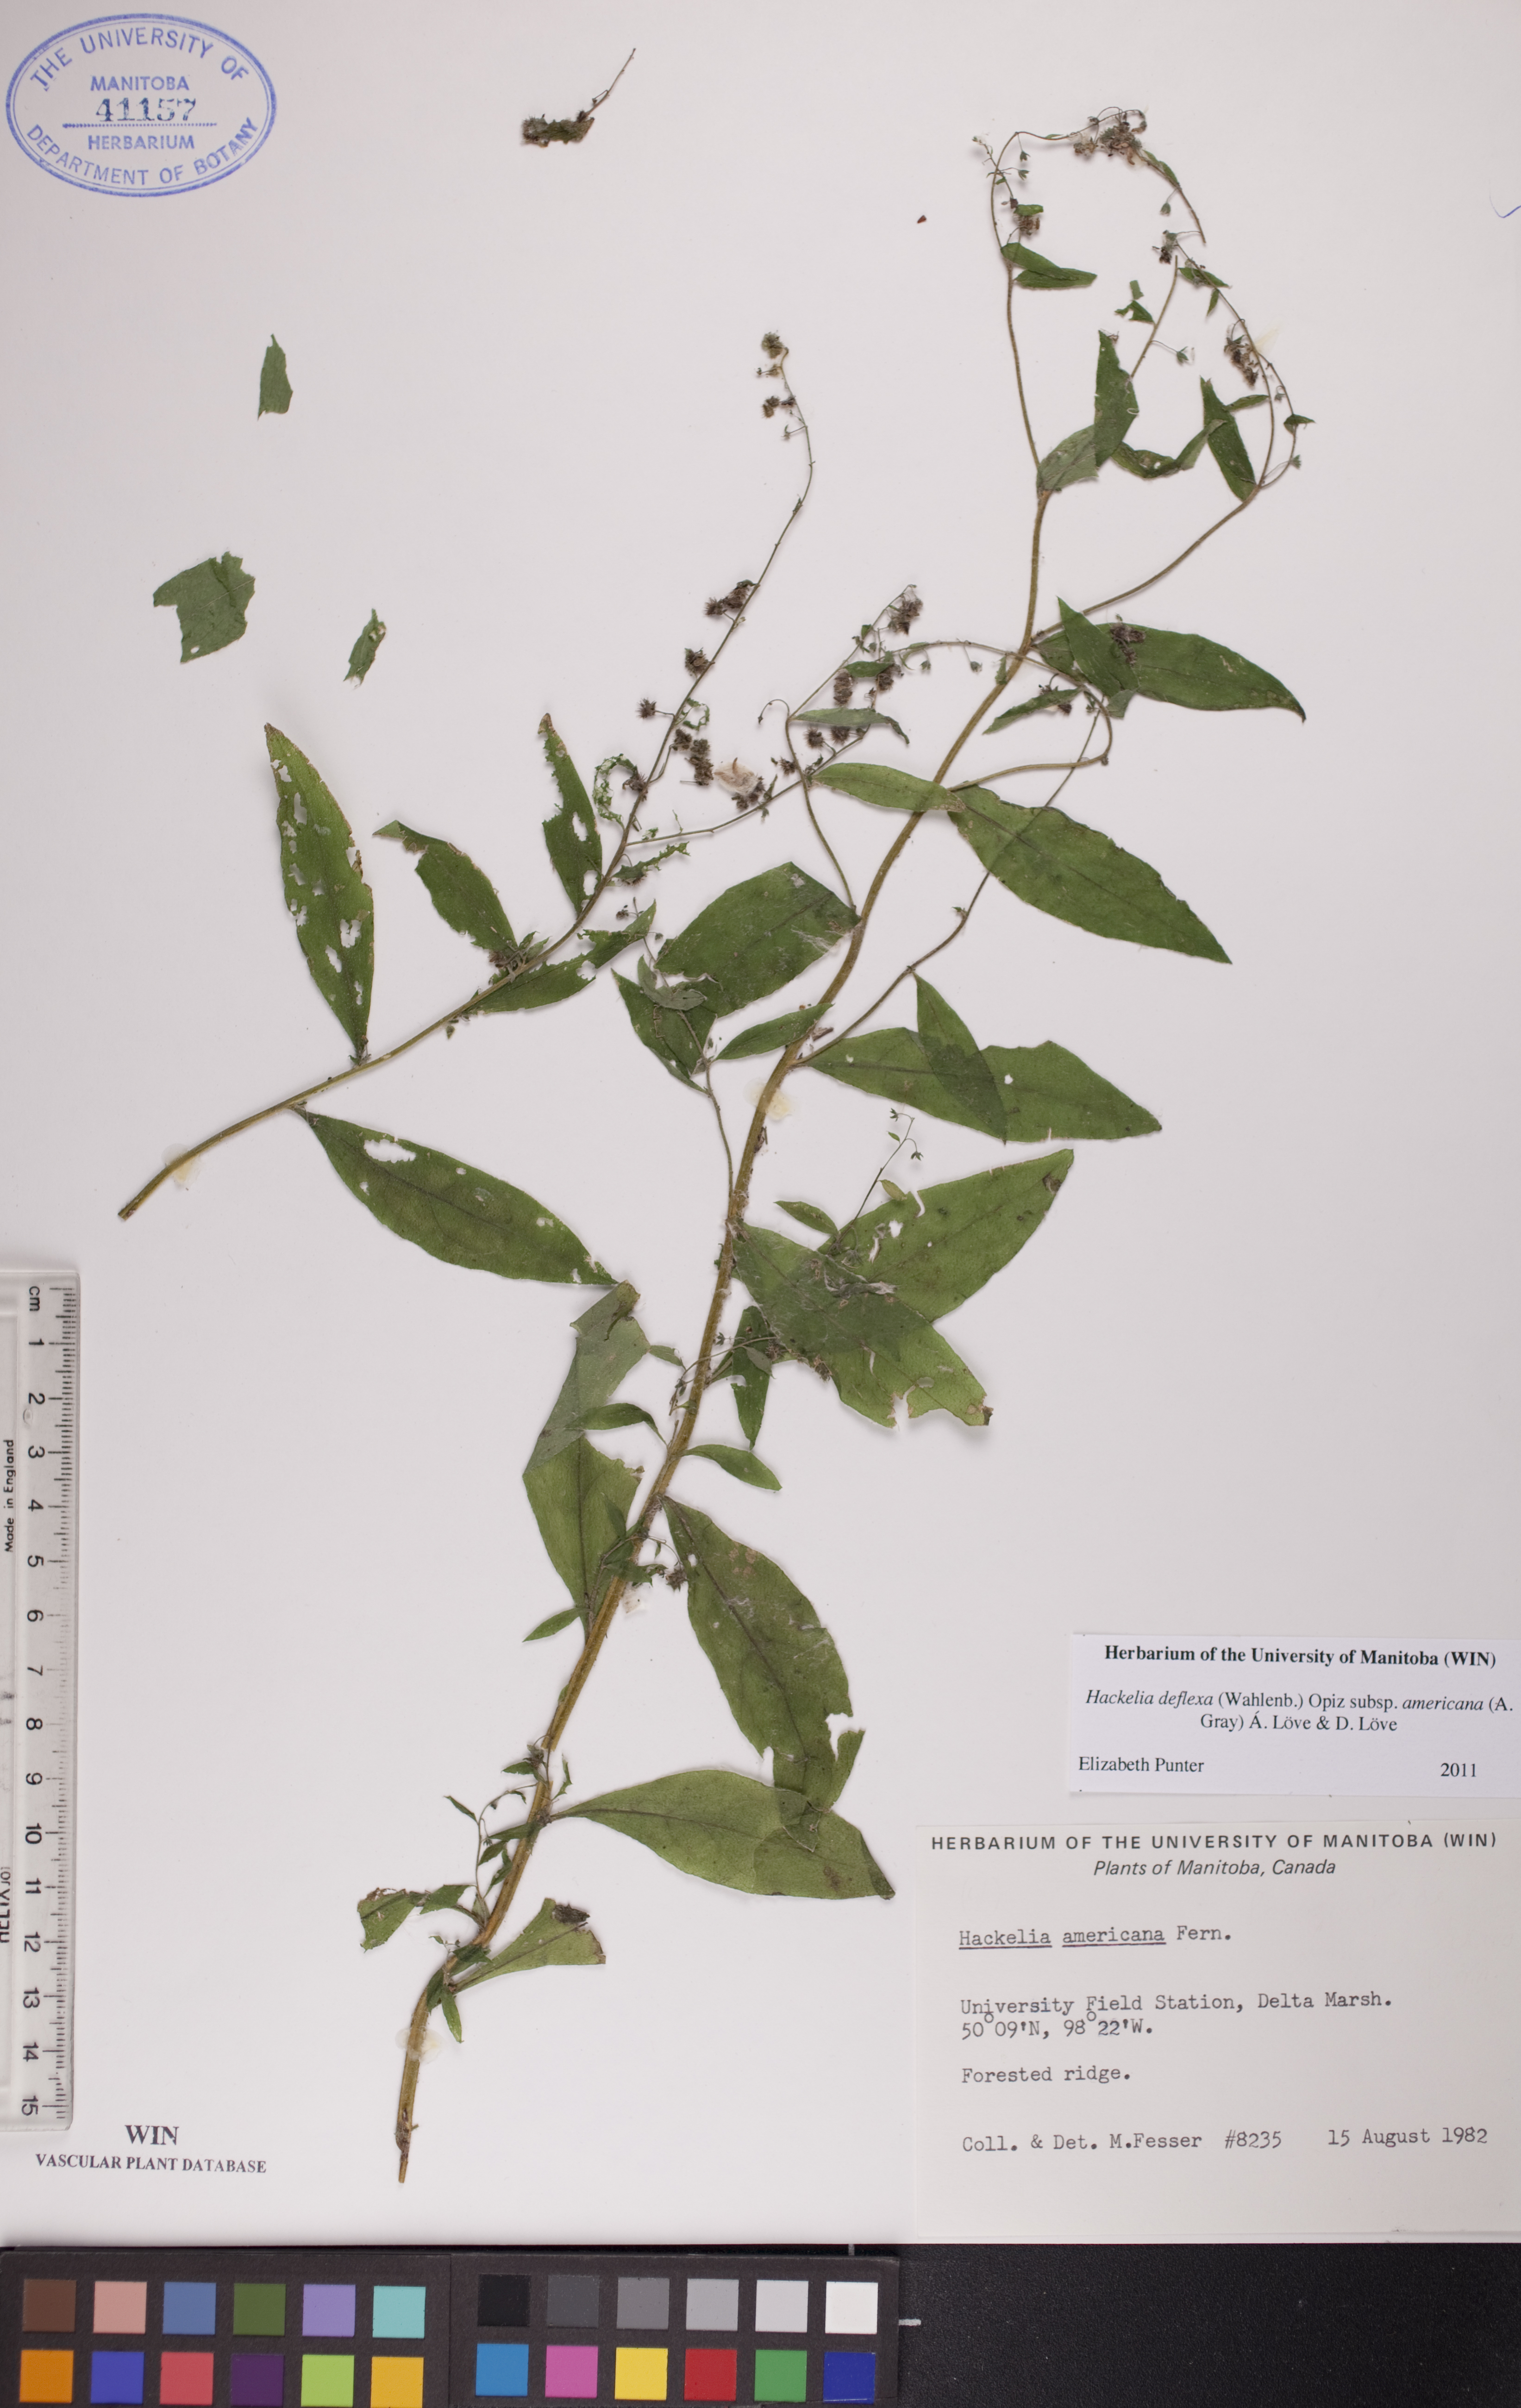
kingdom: Plantae
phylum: Tracheophyta
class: Magnoliopsida
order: Boraginales
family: Boraginaceae
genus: Hackelia
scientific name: Hackelia deflexa
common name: Nodding stickseed
